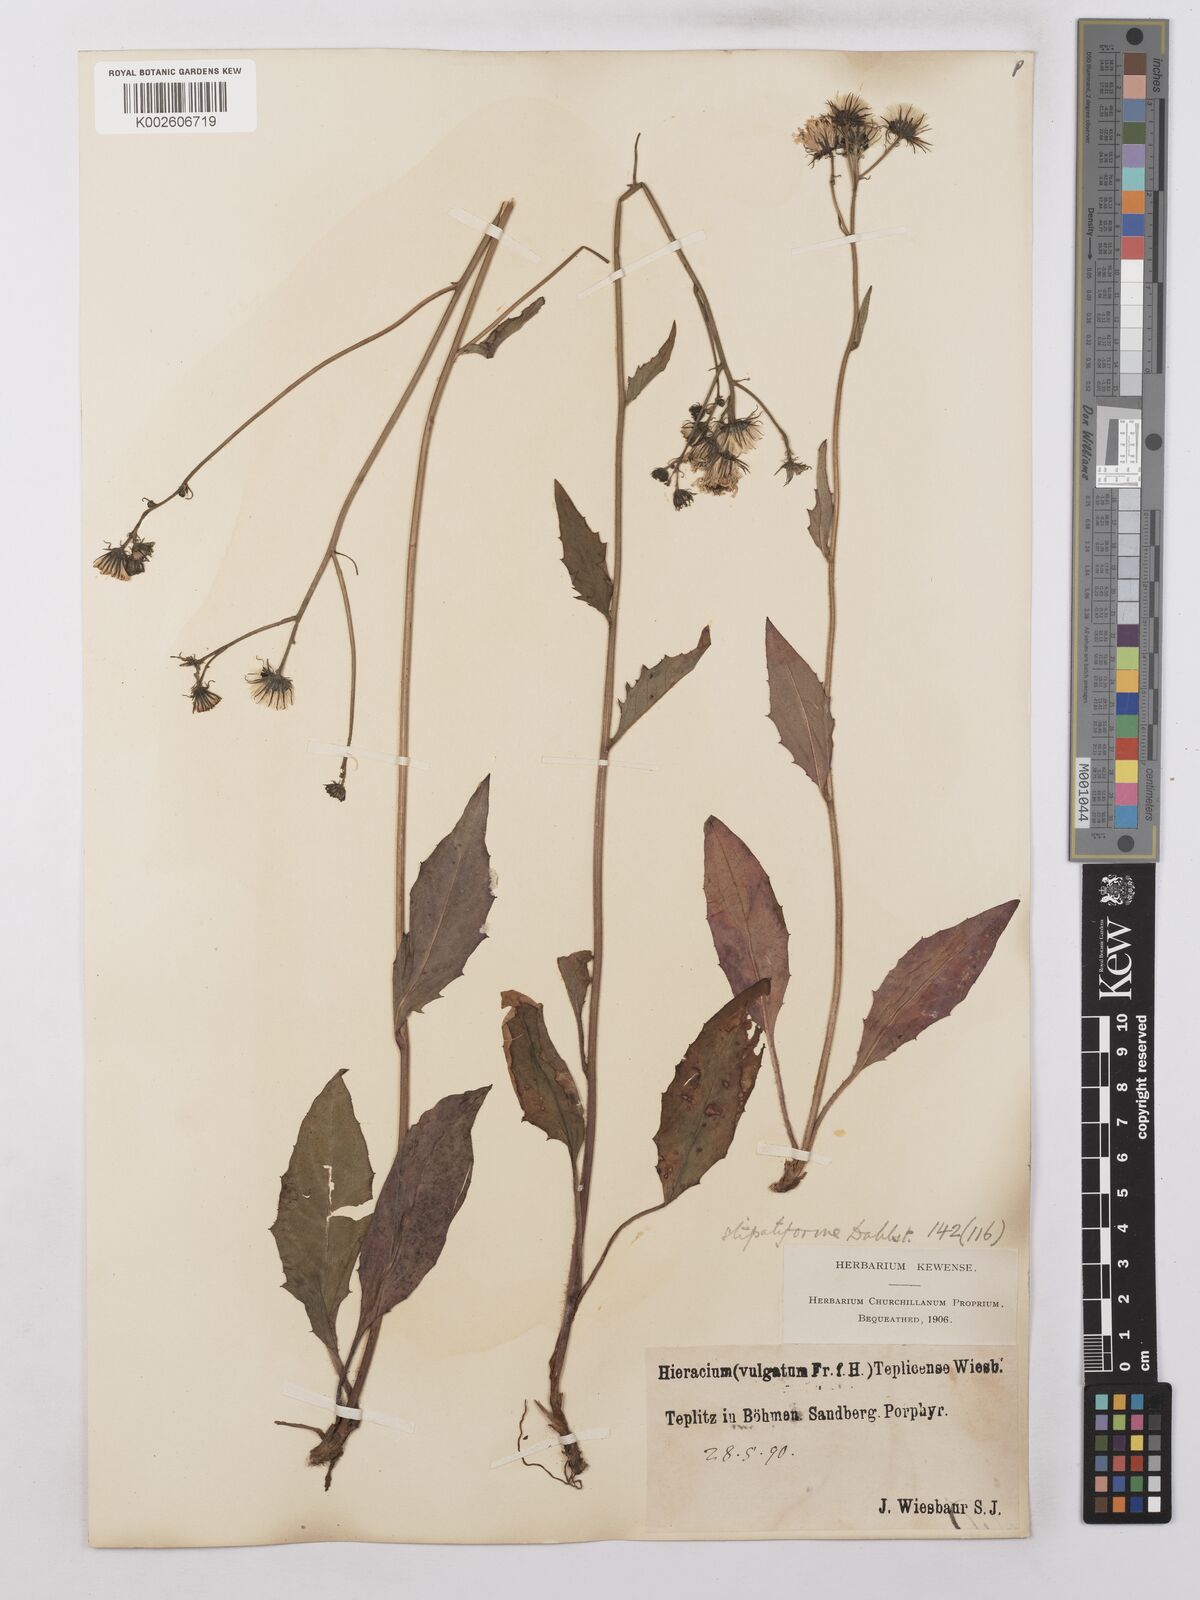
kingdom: Plantae
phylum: Tracheophyta
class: Magnoliopsida
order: Asterales
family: Asteraceae
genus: Hieracium
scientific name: Hieracium lachenalii
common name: Common hawkweed
